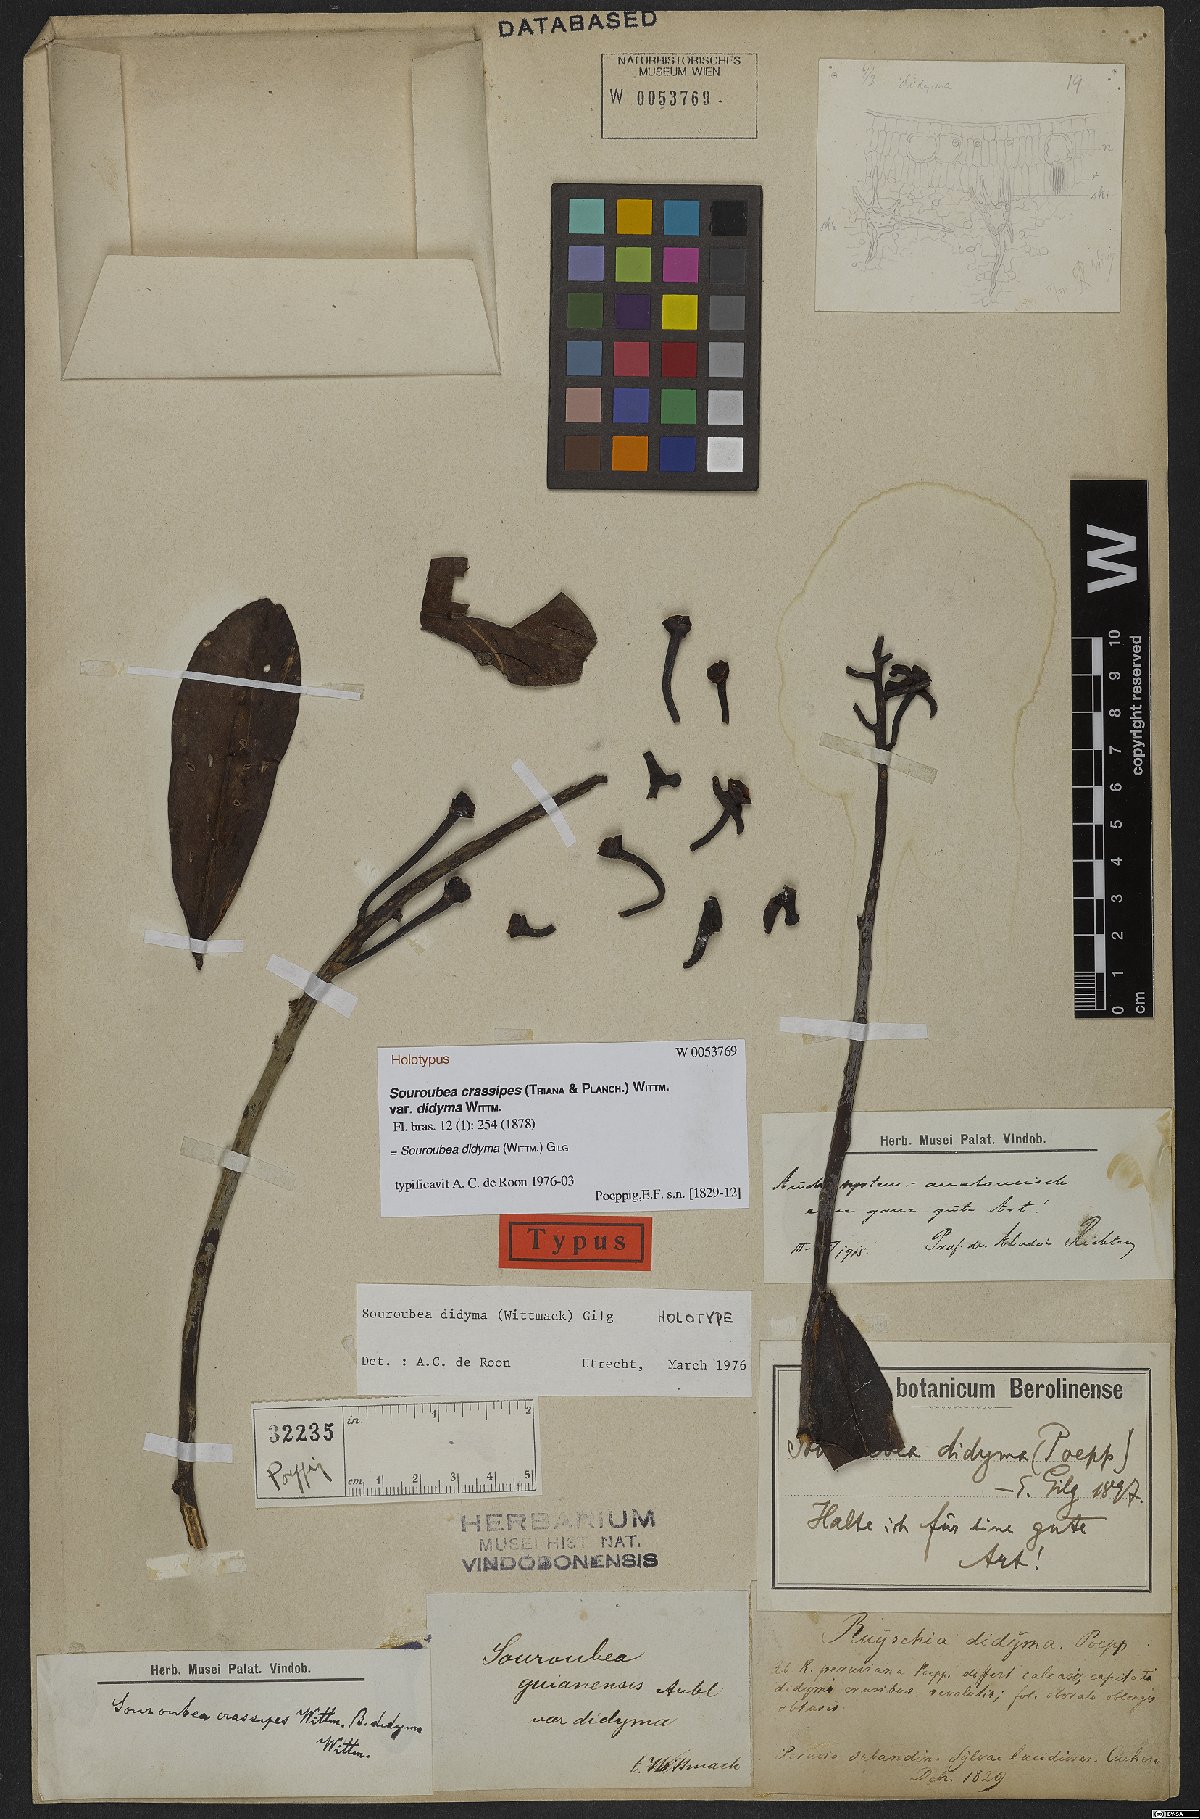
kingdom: Plantae
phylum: Tracheophyta
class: Magnoliopsida
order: Ericales
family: Marcgraviaceae
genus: Souroubea
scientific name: Souroubea didyma
